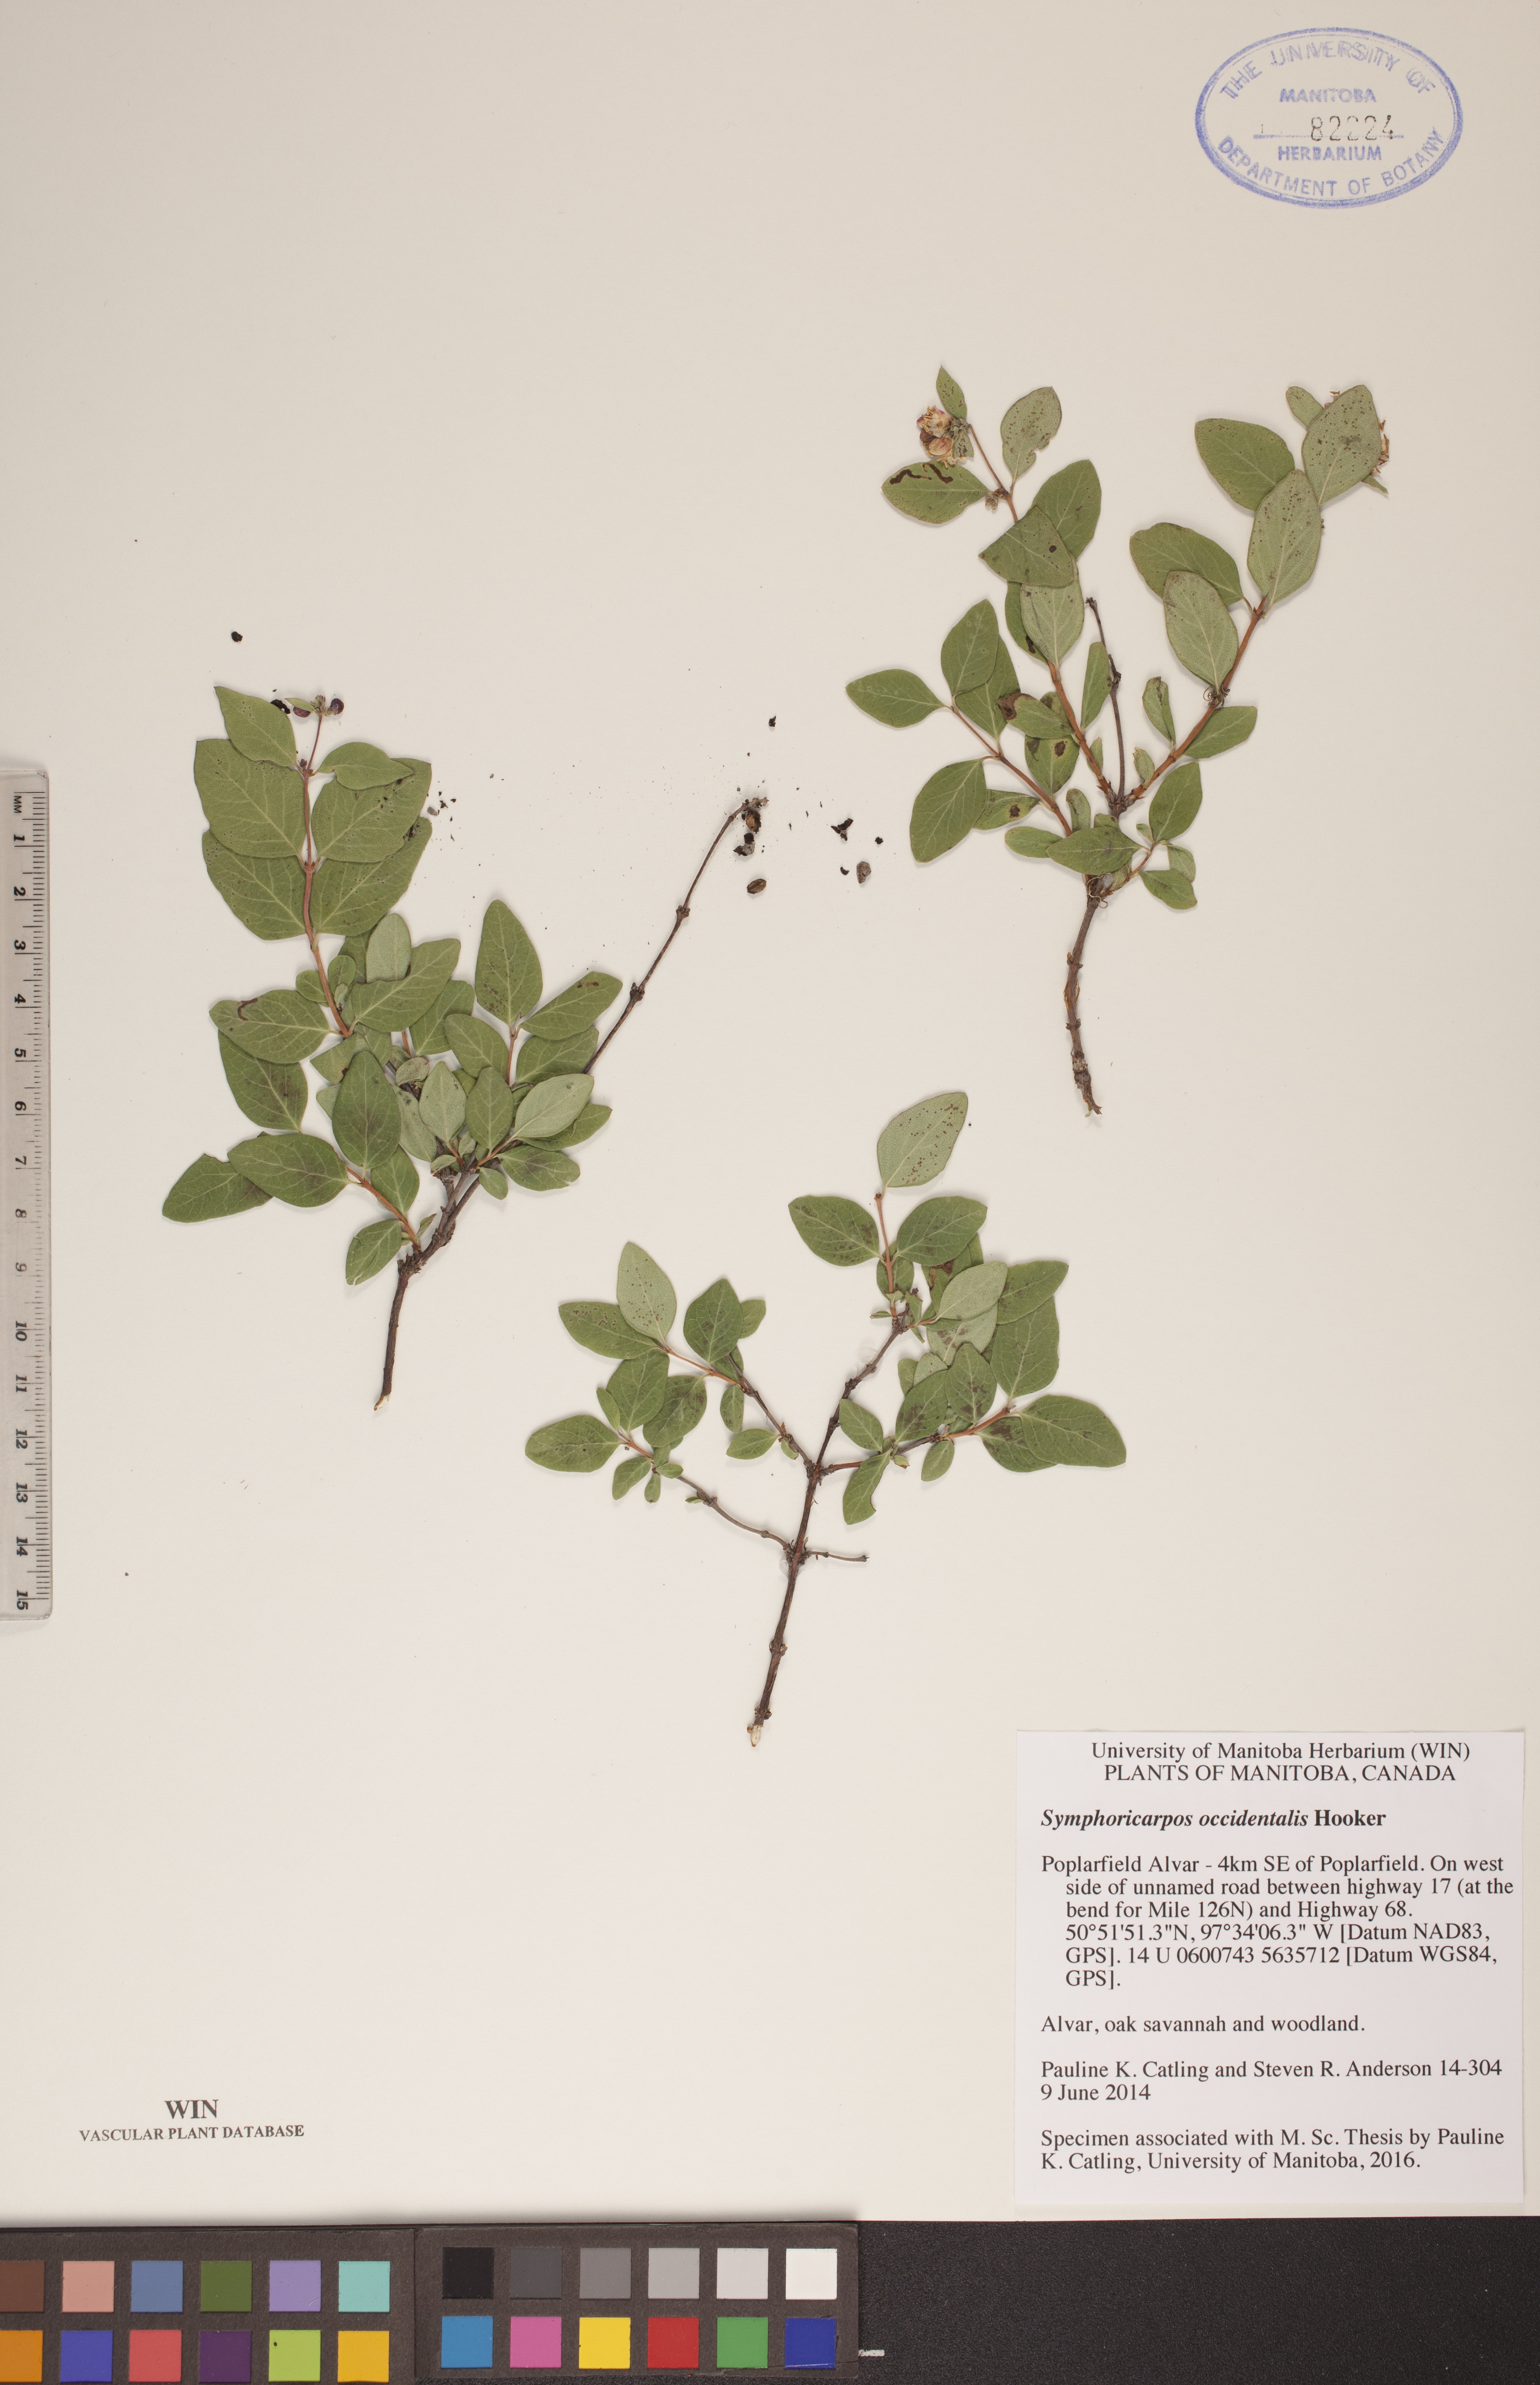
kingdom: Plantae
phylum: Tracheophyta
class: Magnoliopsida
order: Dipsacales
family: Caprifoliaceae
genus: Symphoricarpos
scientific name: Symphoricarpos occidentalis
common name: Wolfberry
